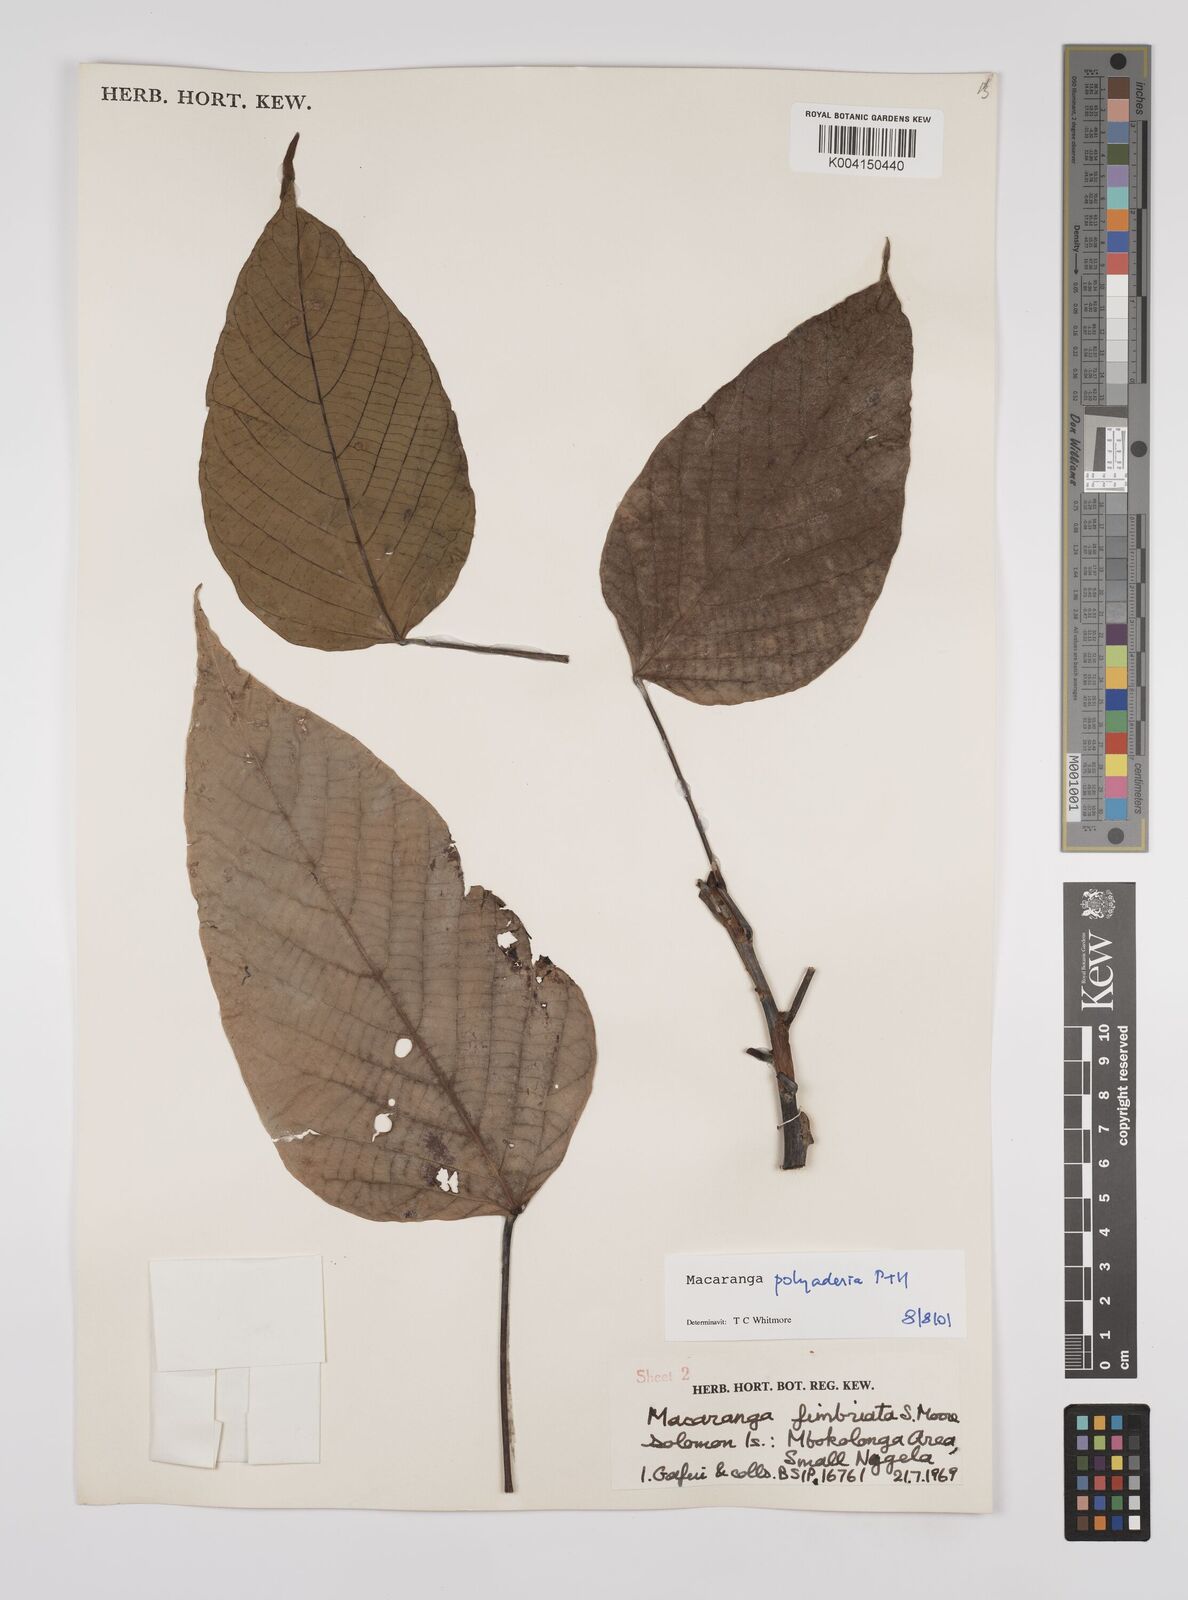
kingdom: Plantae
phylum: Tracheophyta
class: Magnoliopsida
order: Malpighiales
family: Euphorbiaceae
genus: Macaranga
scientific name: Macaranga polyadenia
